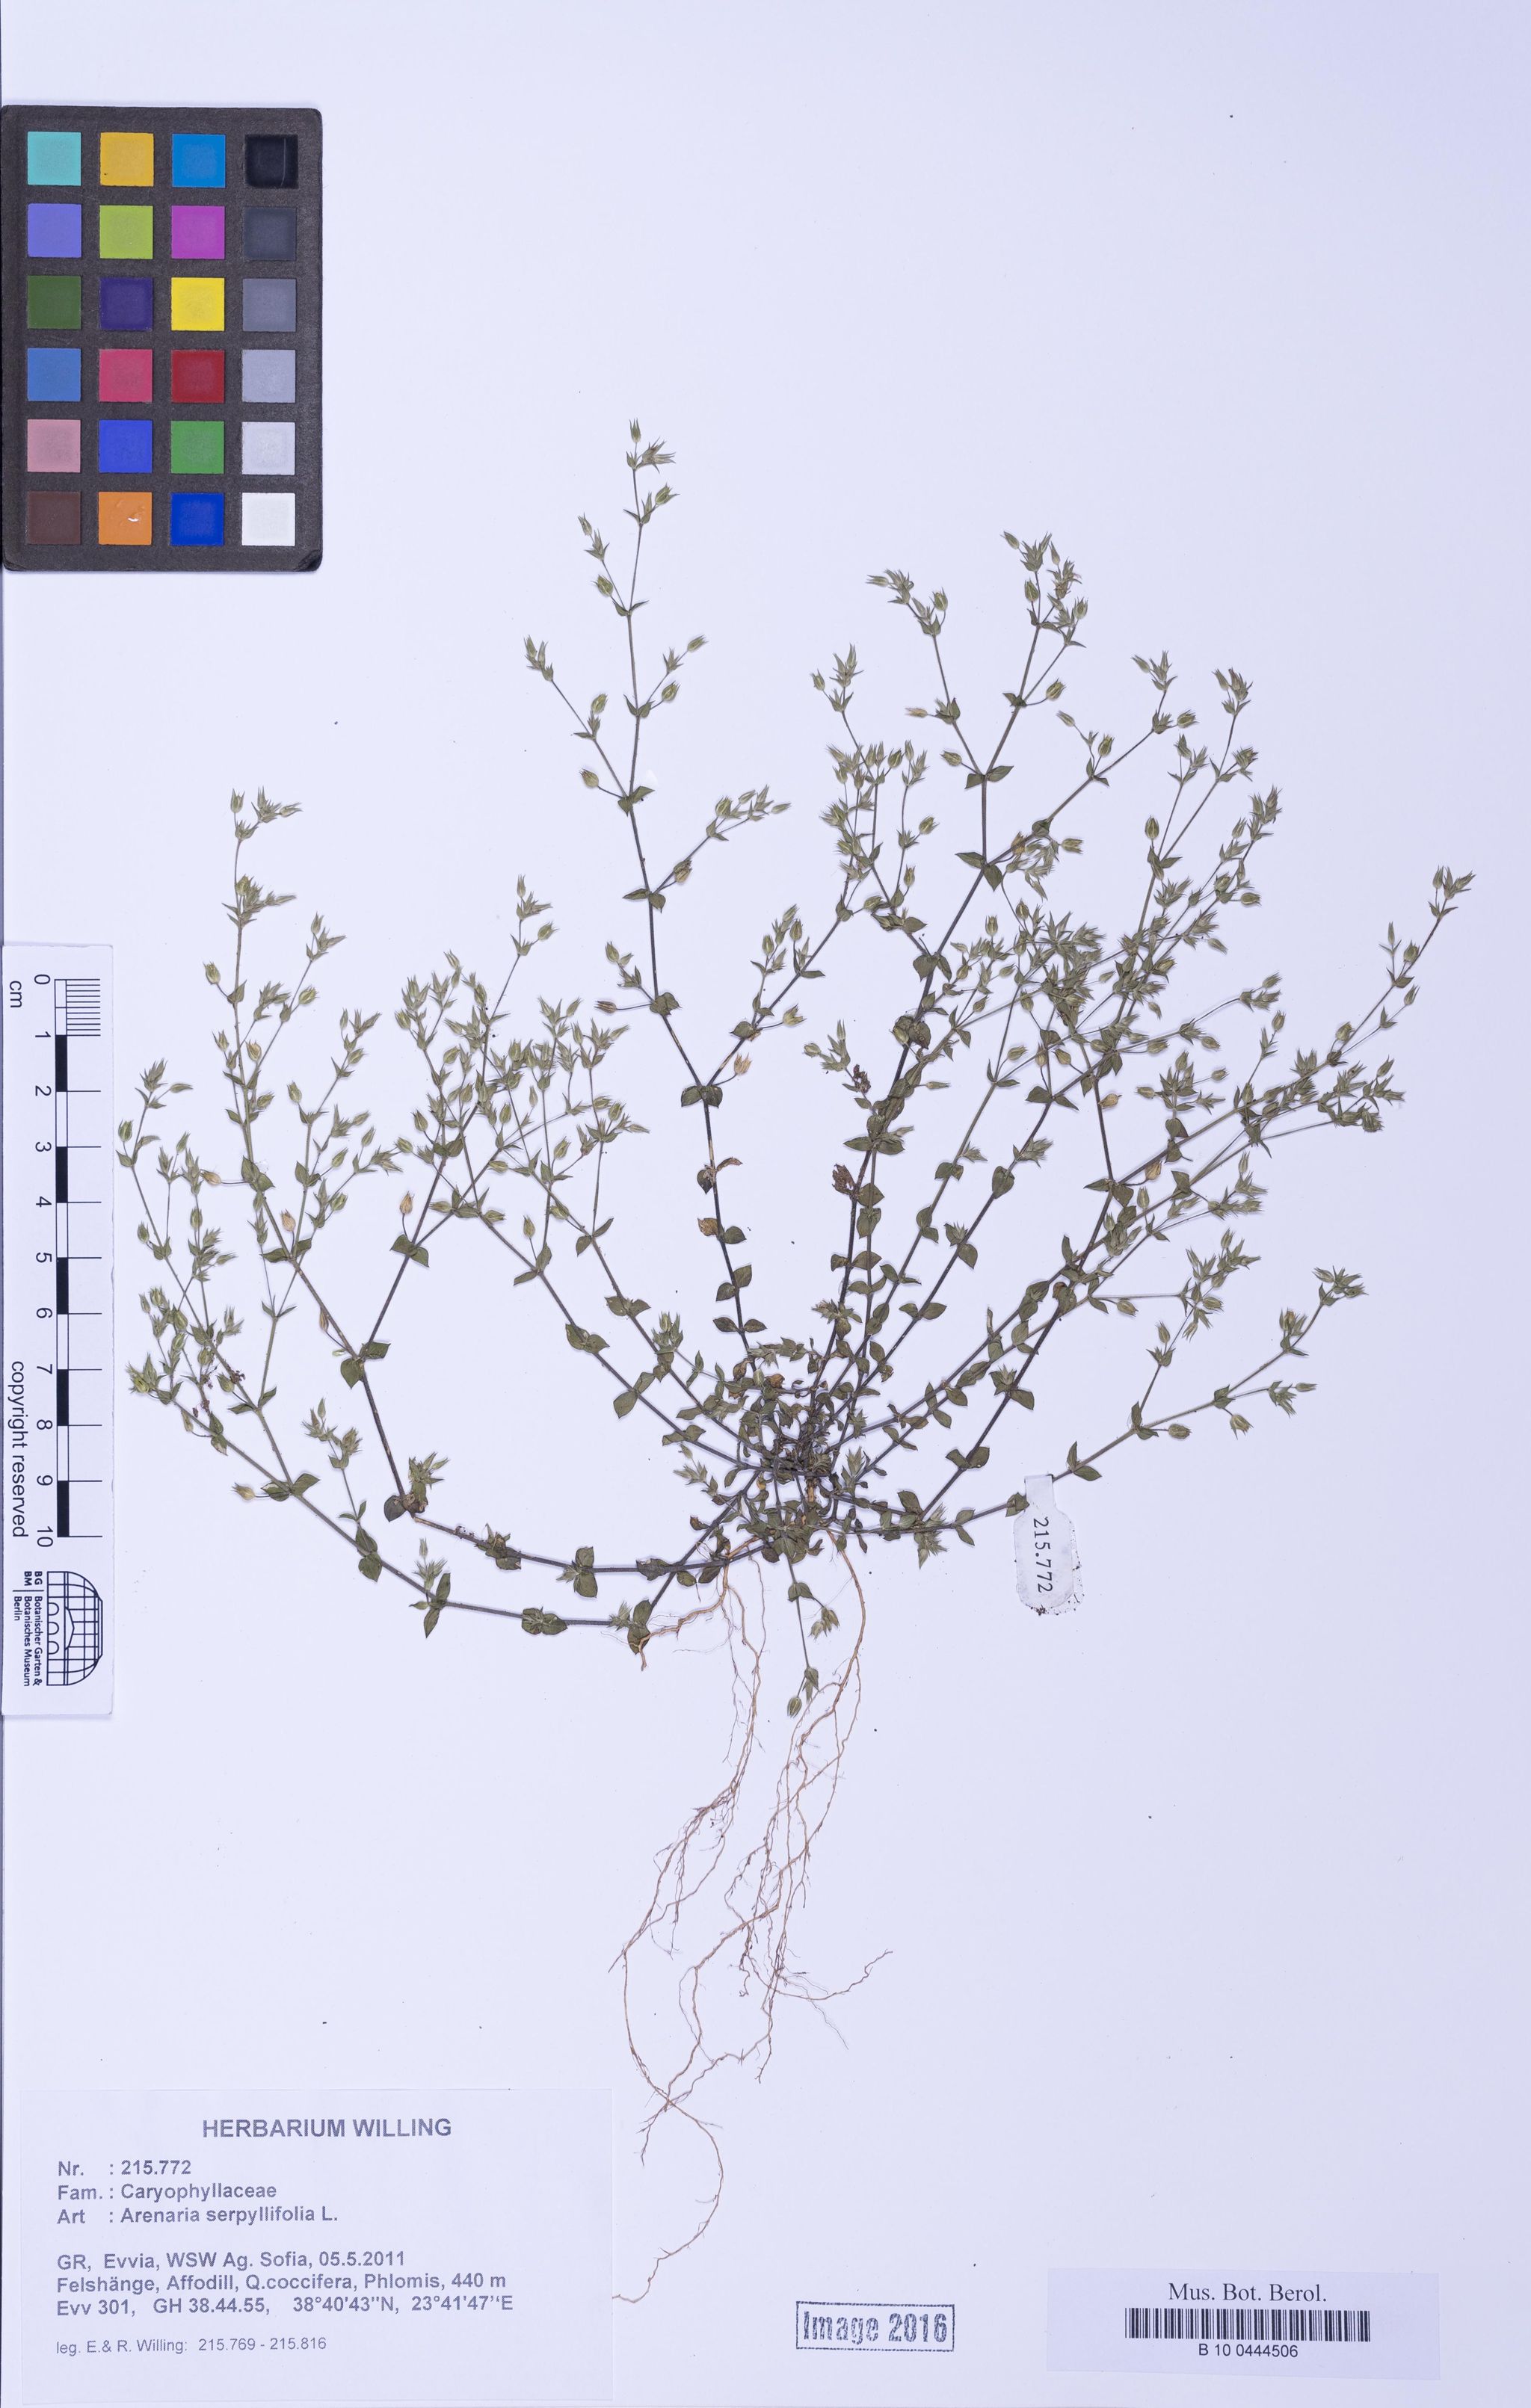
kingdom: Plantae
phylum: Tracheophyta
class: Magnoliopsida
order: Caryophyllales
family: Caryophyllaceae
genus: Arenaria
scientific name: Arenaria serpyllifolia
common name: Thyme-leaved sandwort
